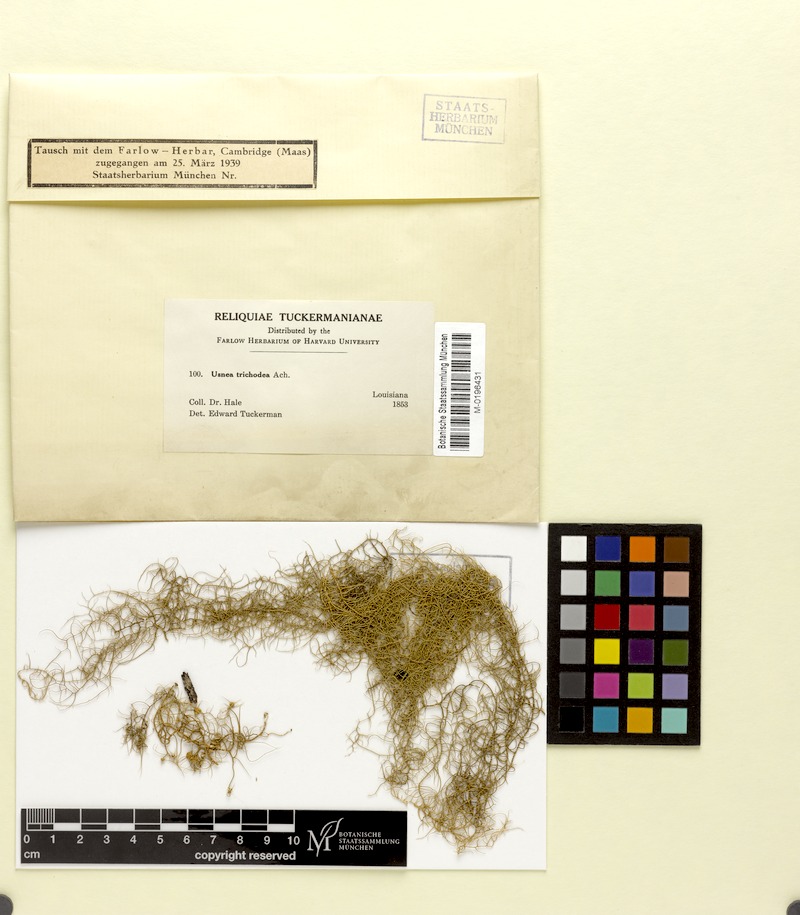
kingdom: Fungi
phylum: Ascomycota
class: Lecanoromycetes
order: Lecanorales
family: Parmeliaceae
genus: Usnea
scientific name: Usnea trichodea
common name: Bony beard lichen
